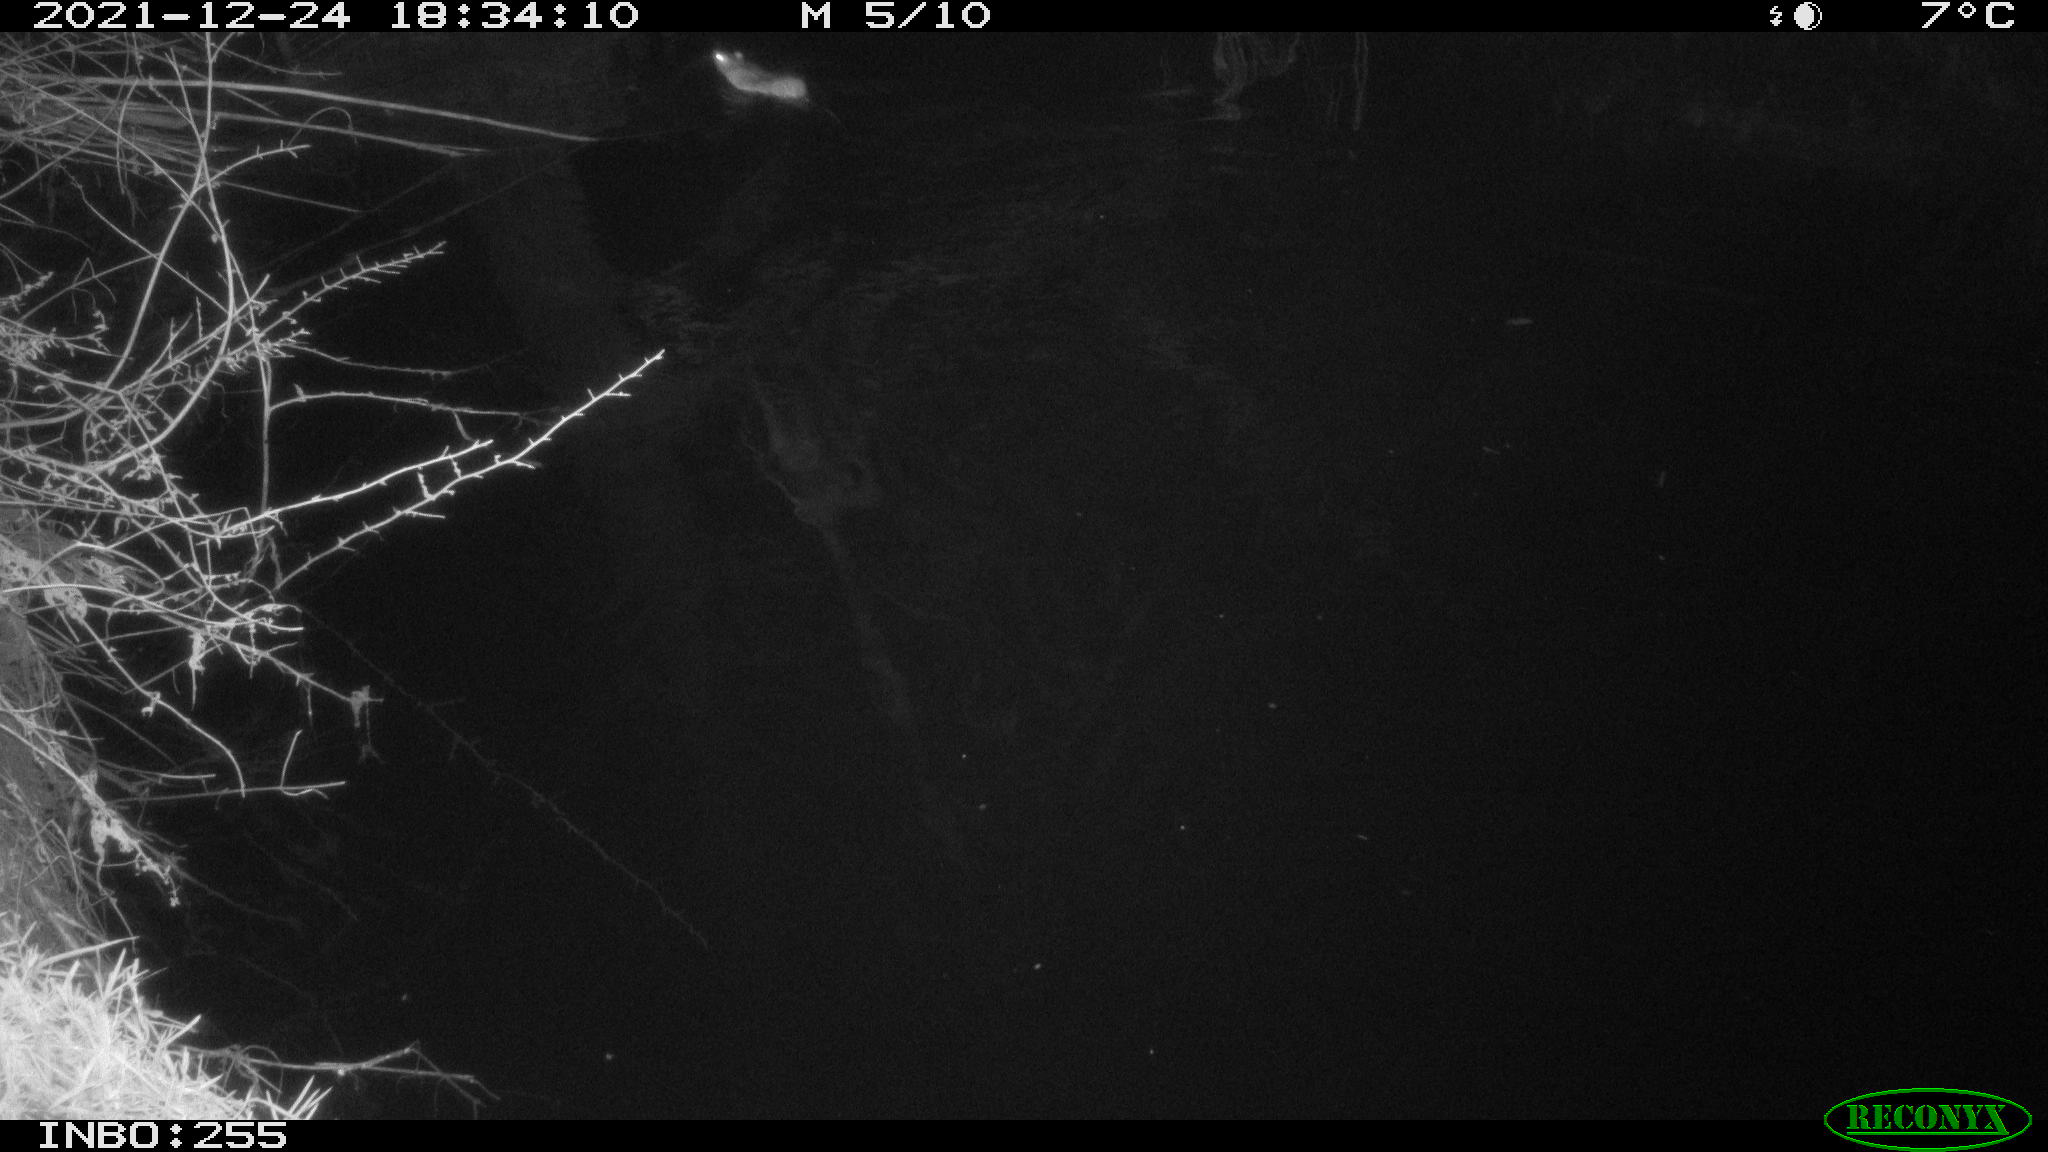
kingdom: Animalia
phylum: Chordata
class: Mammalia
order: Rodentia
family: Muridae
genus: Rattus
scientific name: Rattus norvegicus
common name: Brown rat
